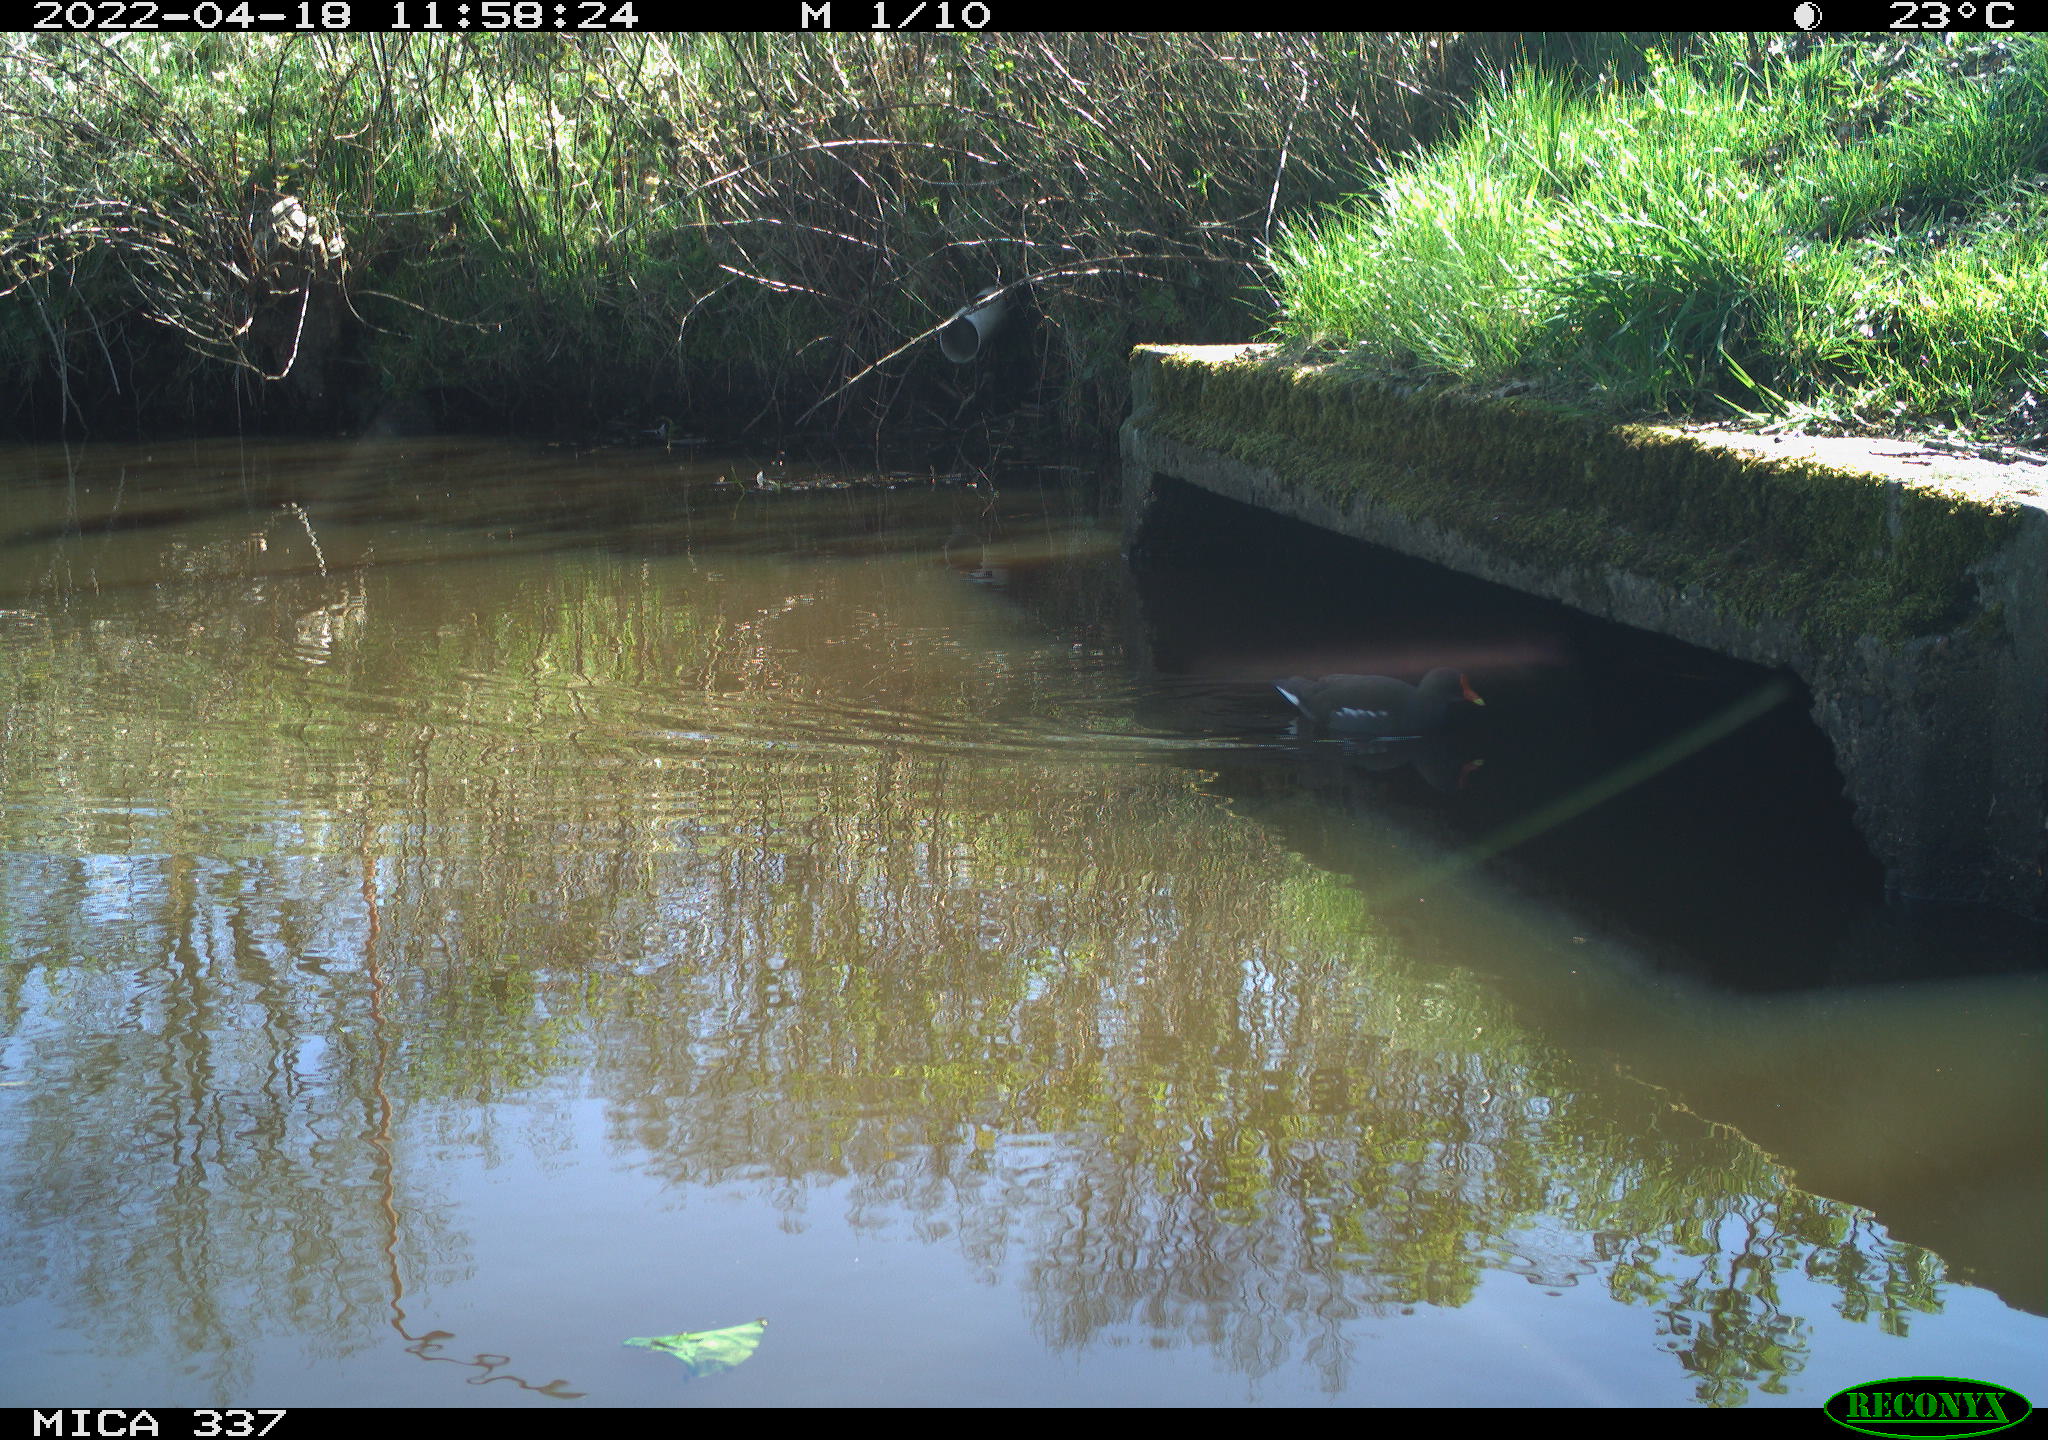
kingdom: Animalia
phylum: Chordata
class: Aves
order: Gruiformes
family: Rallidae
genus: Gallinula
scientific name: Gallinula chloropus
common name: Common moorhen
